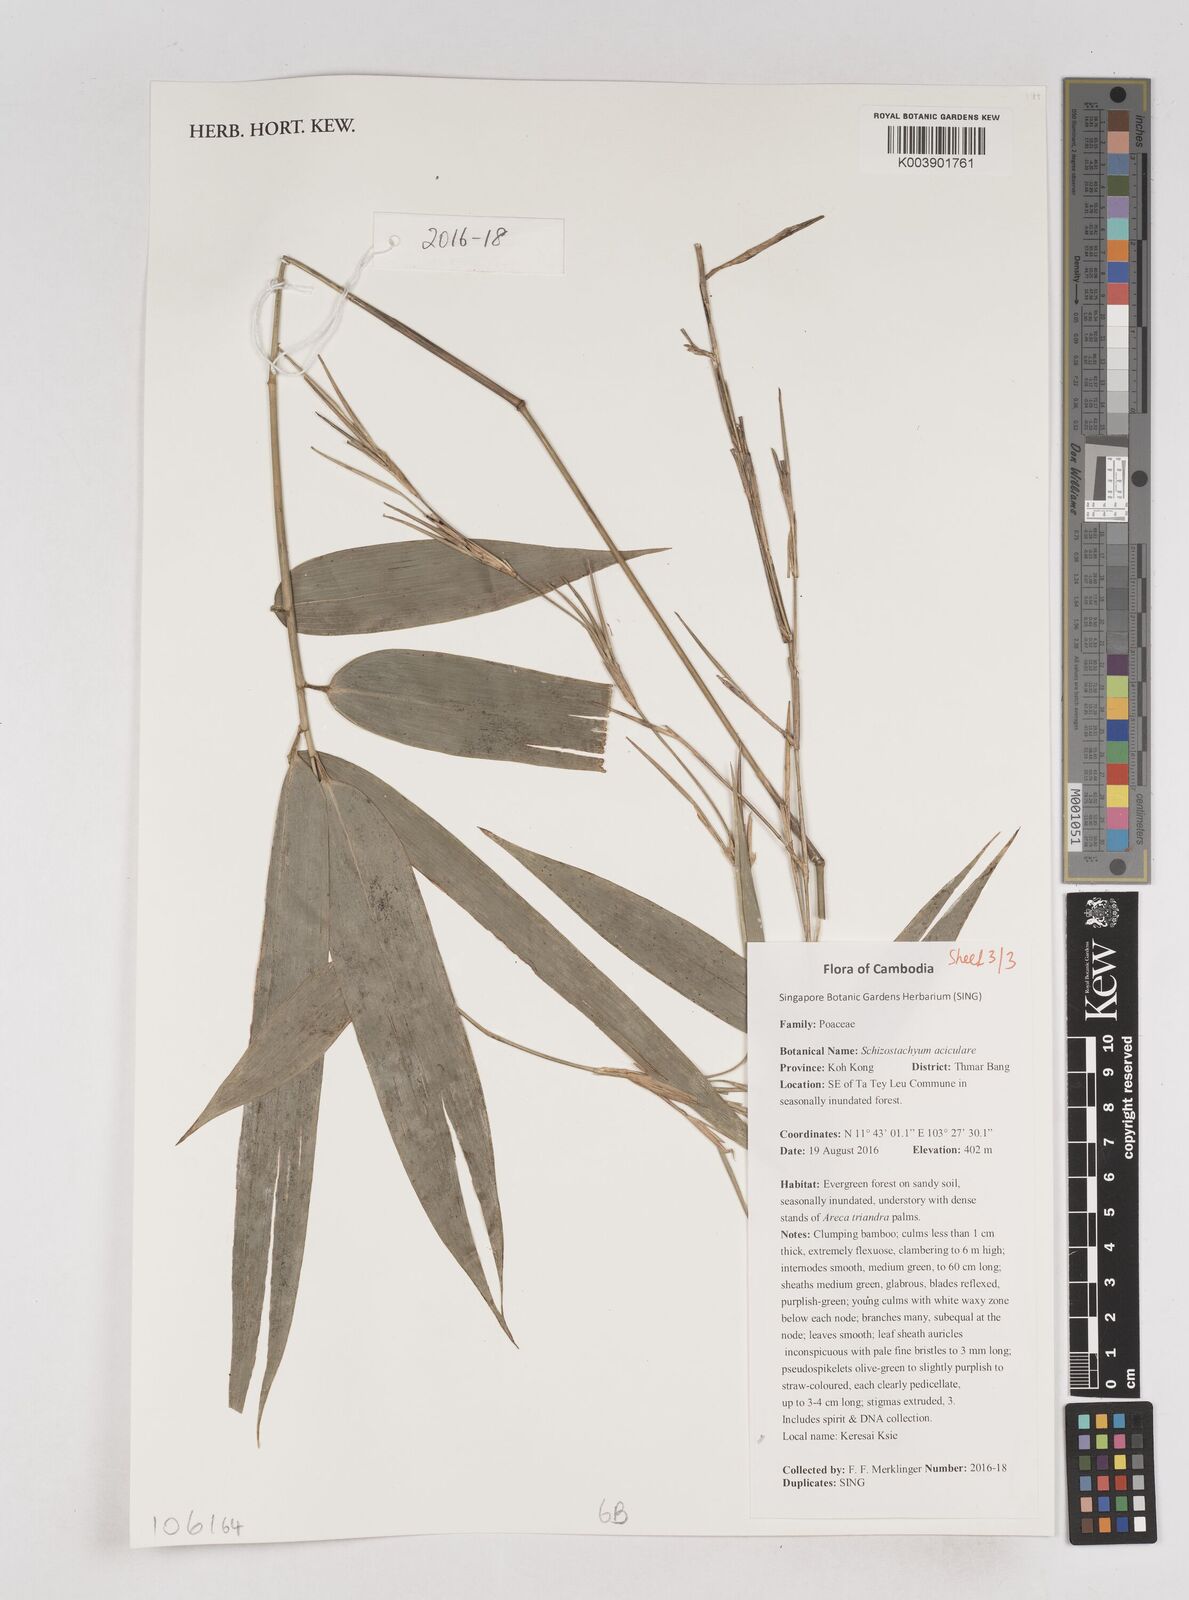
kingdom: Plantae
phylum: Tracheophyta
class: Liliopsida
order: Poales
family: Poaceae
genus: Schizostachyum
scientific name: Schizostachyum aciculare
